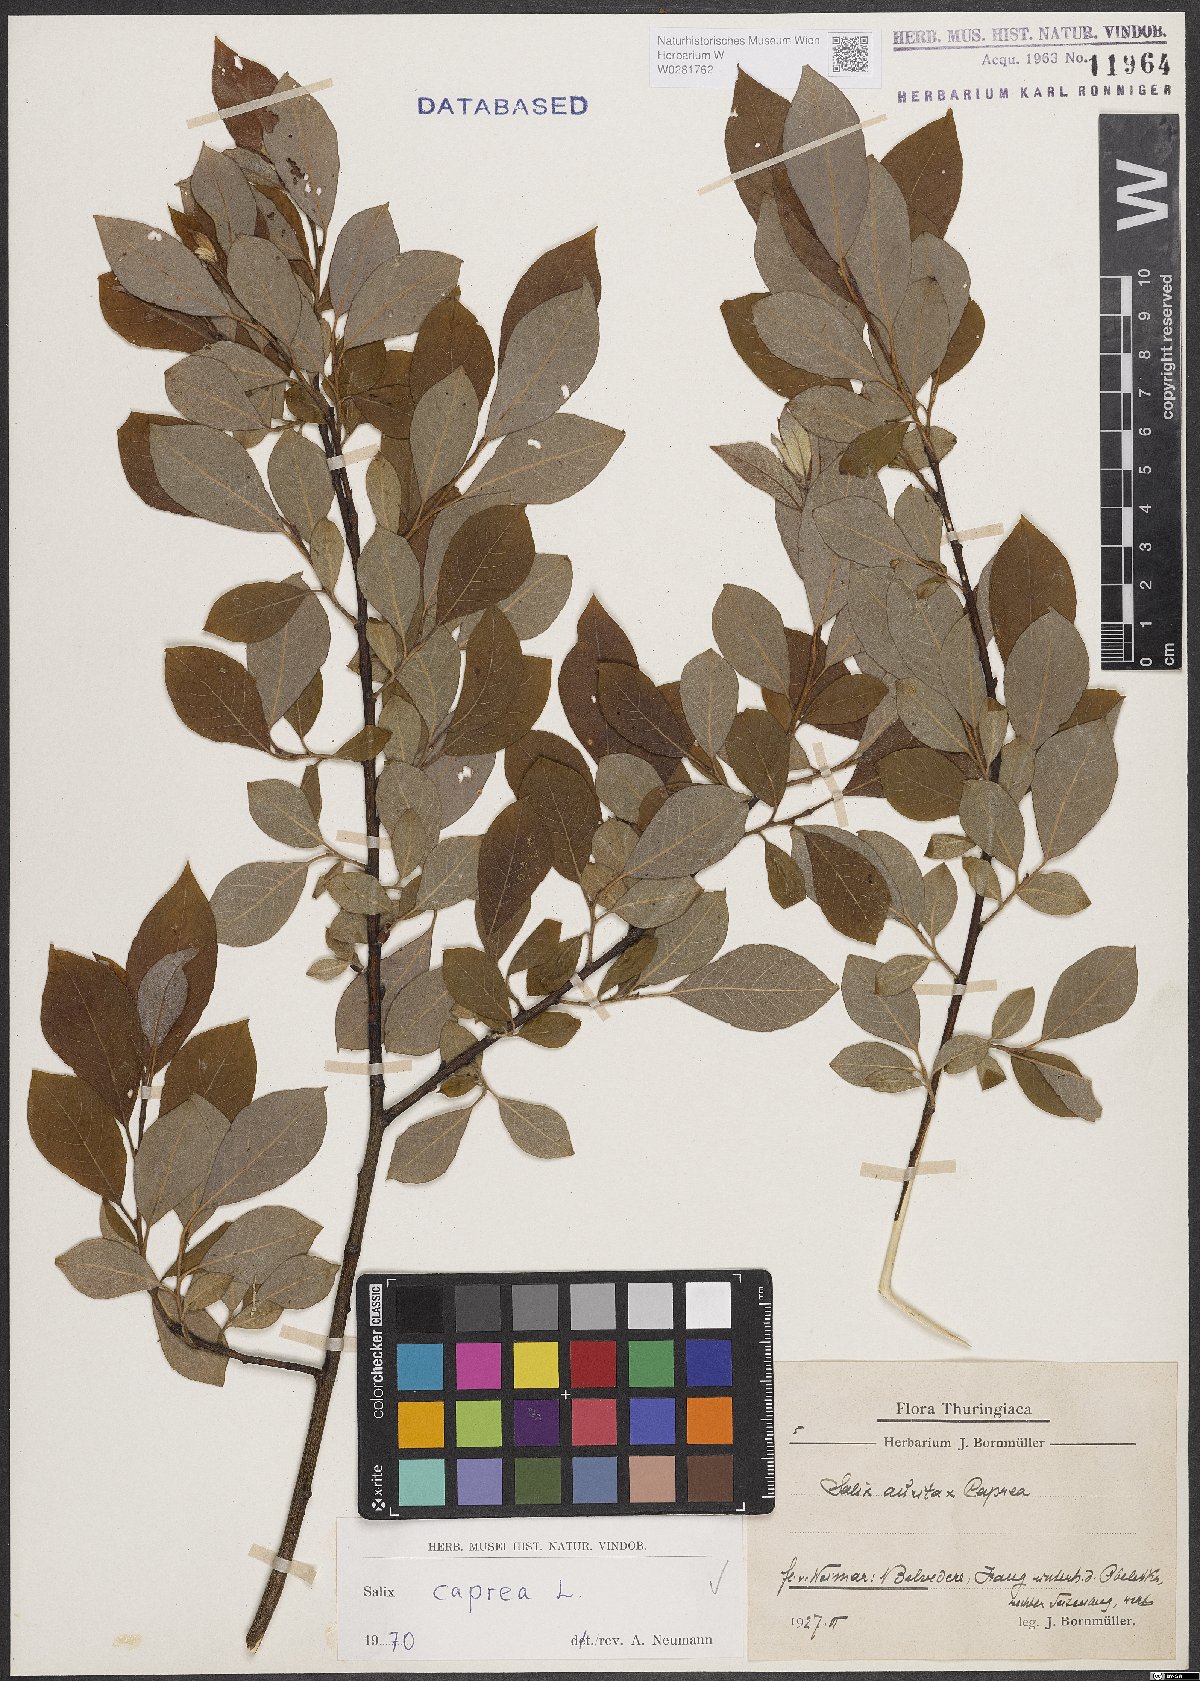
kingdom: Plantae
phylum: Tracheophyta
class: Magnoliopsida
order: Malpighiales
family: Salicaceae
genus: Salix
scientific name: Salix caprea
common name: Goat willow
